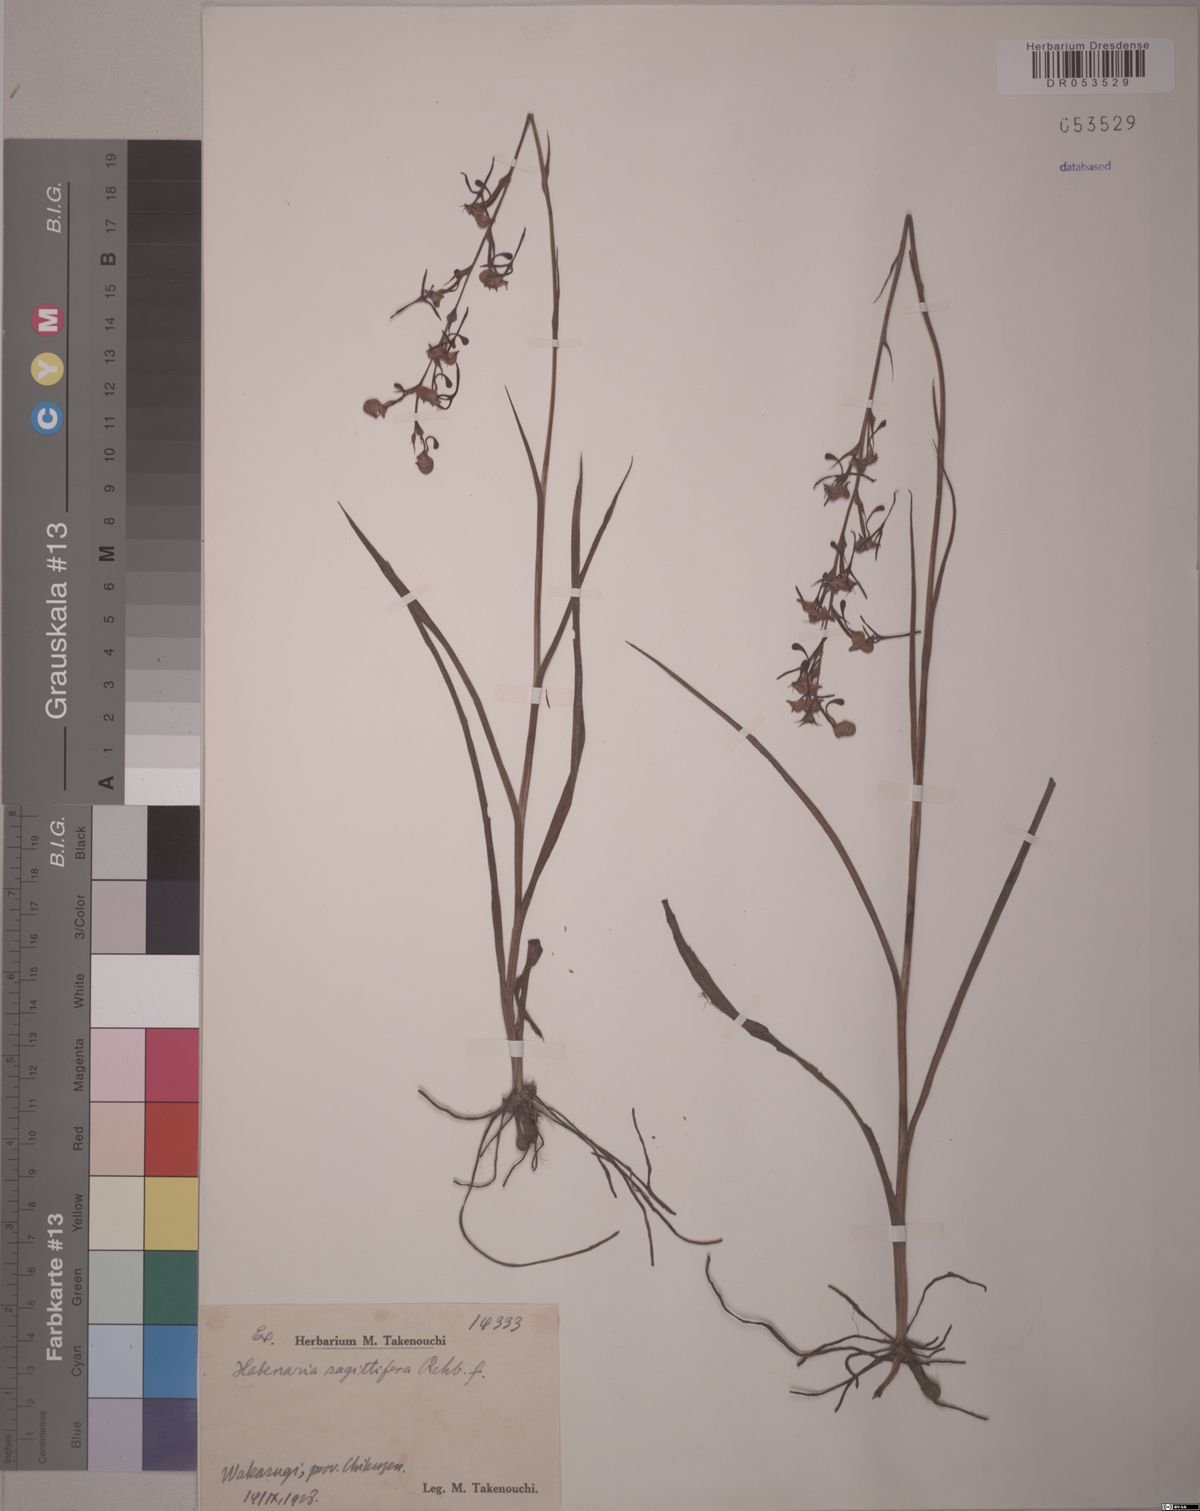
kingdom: Plantae
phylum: Tracheophyta
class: Liliopsida
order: Asparagales
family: Orchidaceae
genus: Habenaria
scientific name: Habenaria sagittifera
